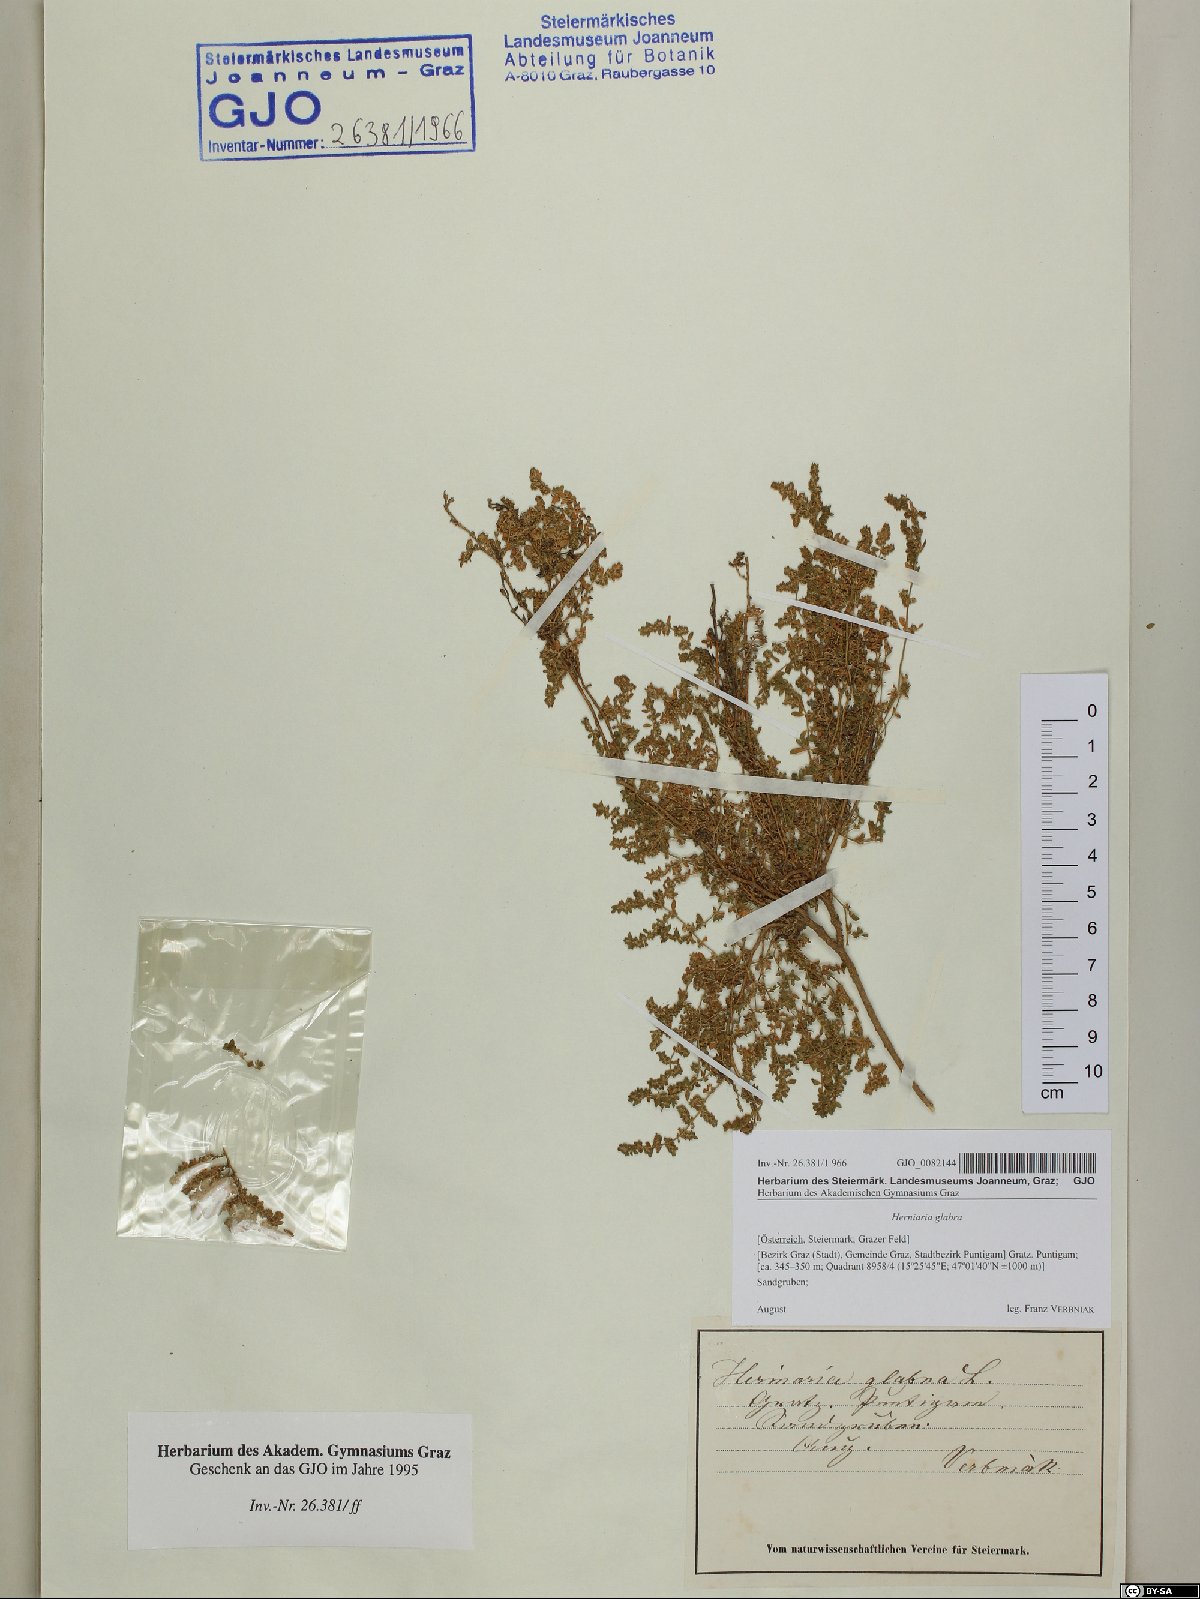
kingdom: Plantae
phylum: Tracheophyta
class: Magnoliopsida
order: Caryophyllales
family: Caryophyllaceae
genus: Herniaria
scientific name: Herniaria glabra
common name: Smooth rupturewort
